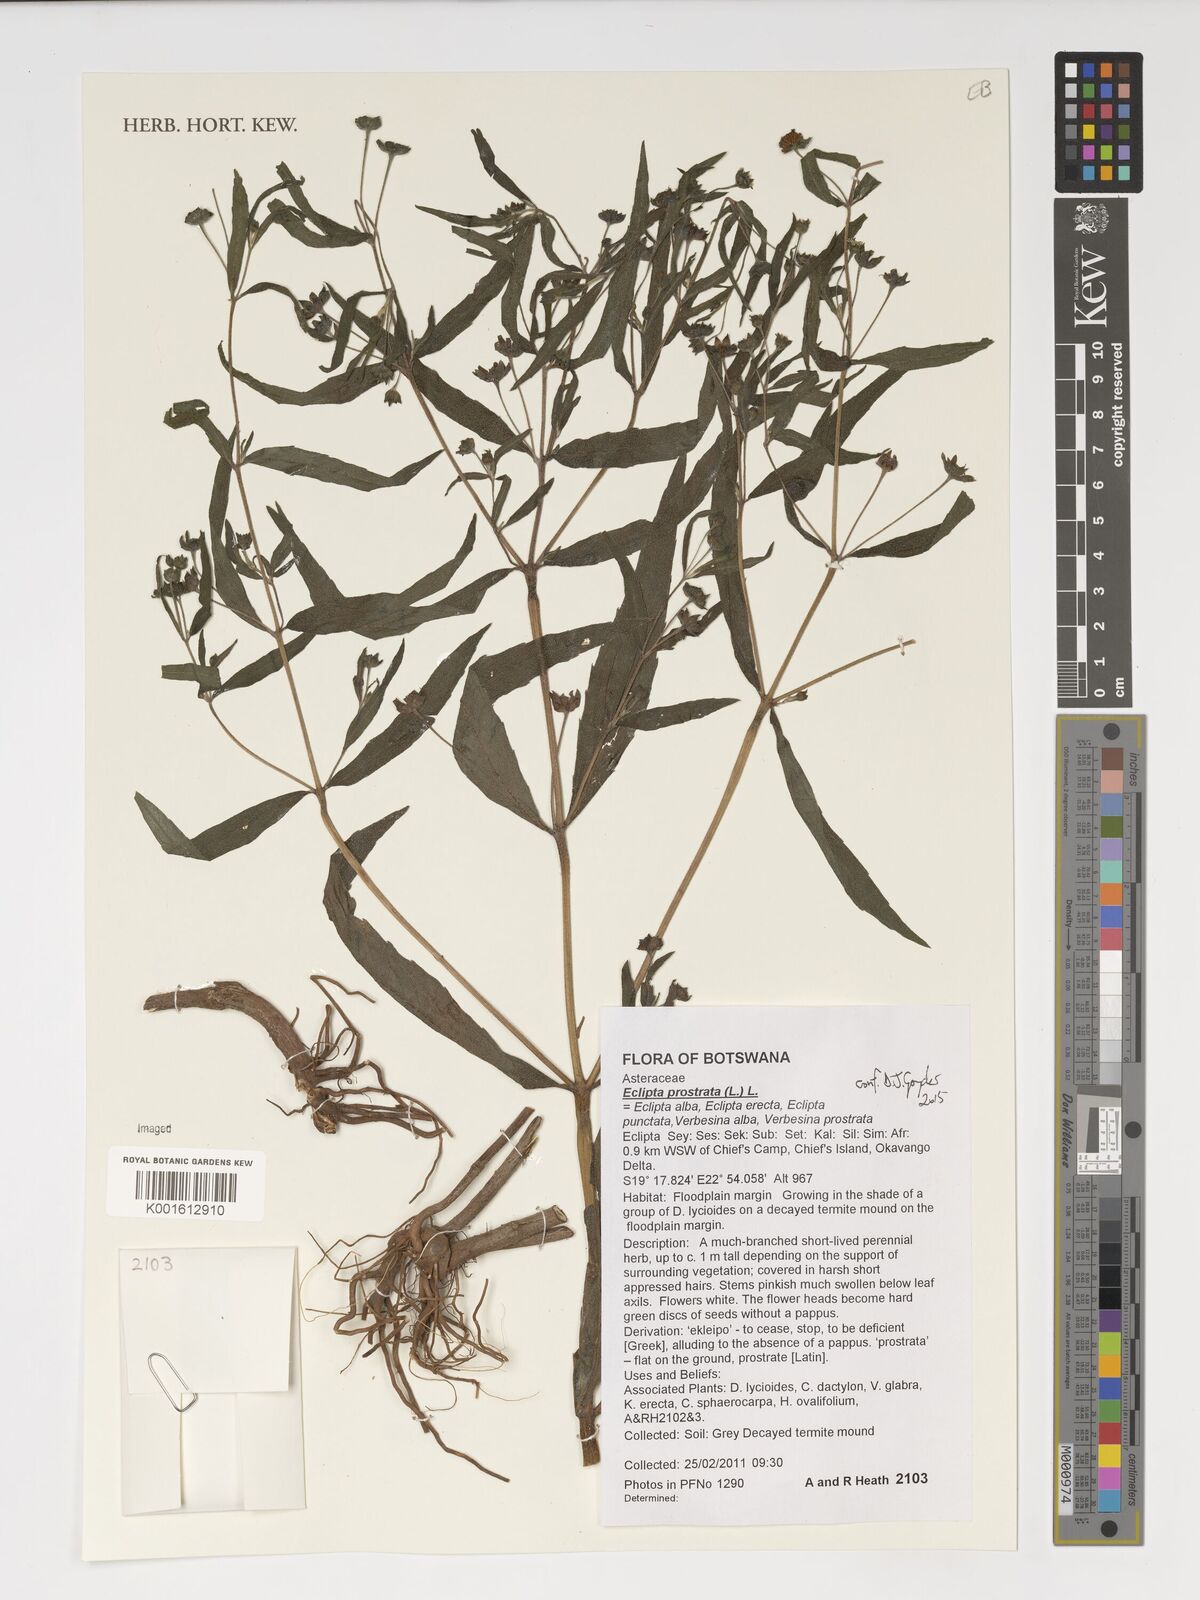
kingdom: Plantae
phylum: Tracheophyta
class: Magnoliopsida
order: Asterales
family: Asteraceae
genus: Eclipta
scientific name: Eclipta prostrata
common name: False daisy
